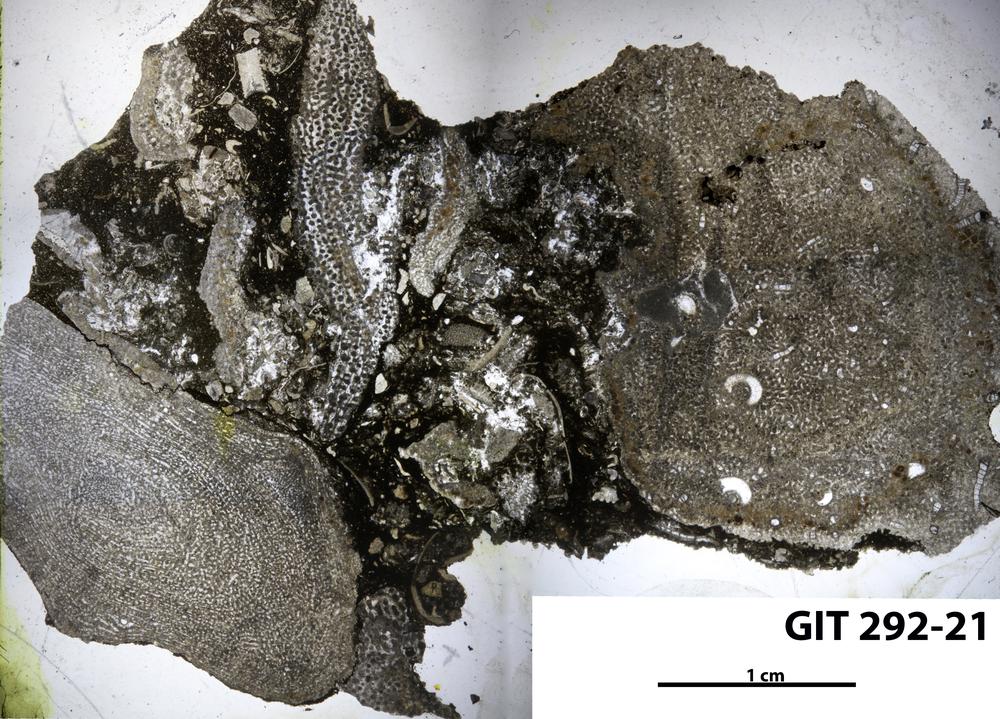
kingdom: Animalia
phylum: Porifera
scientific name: Porifera
